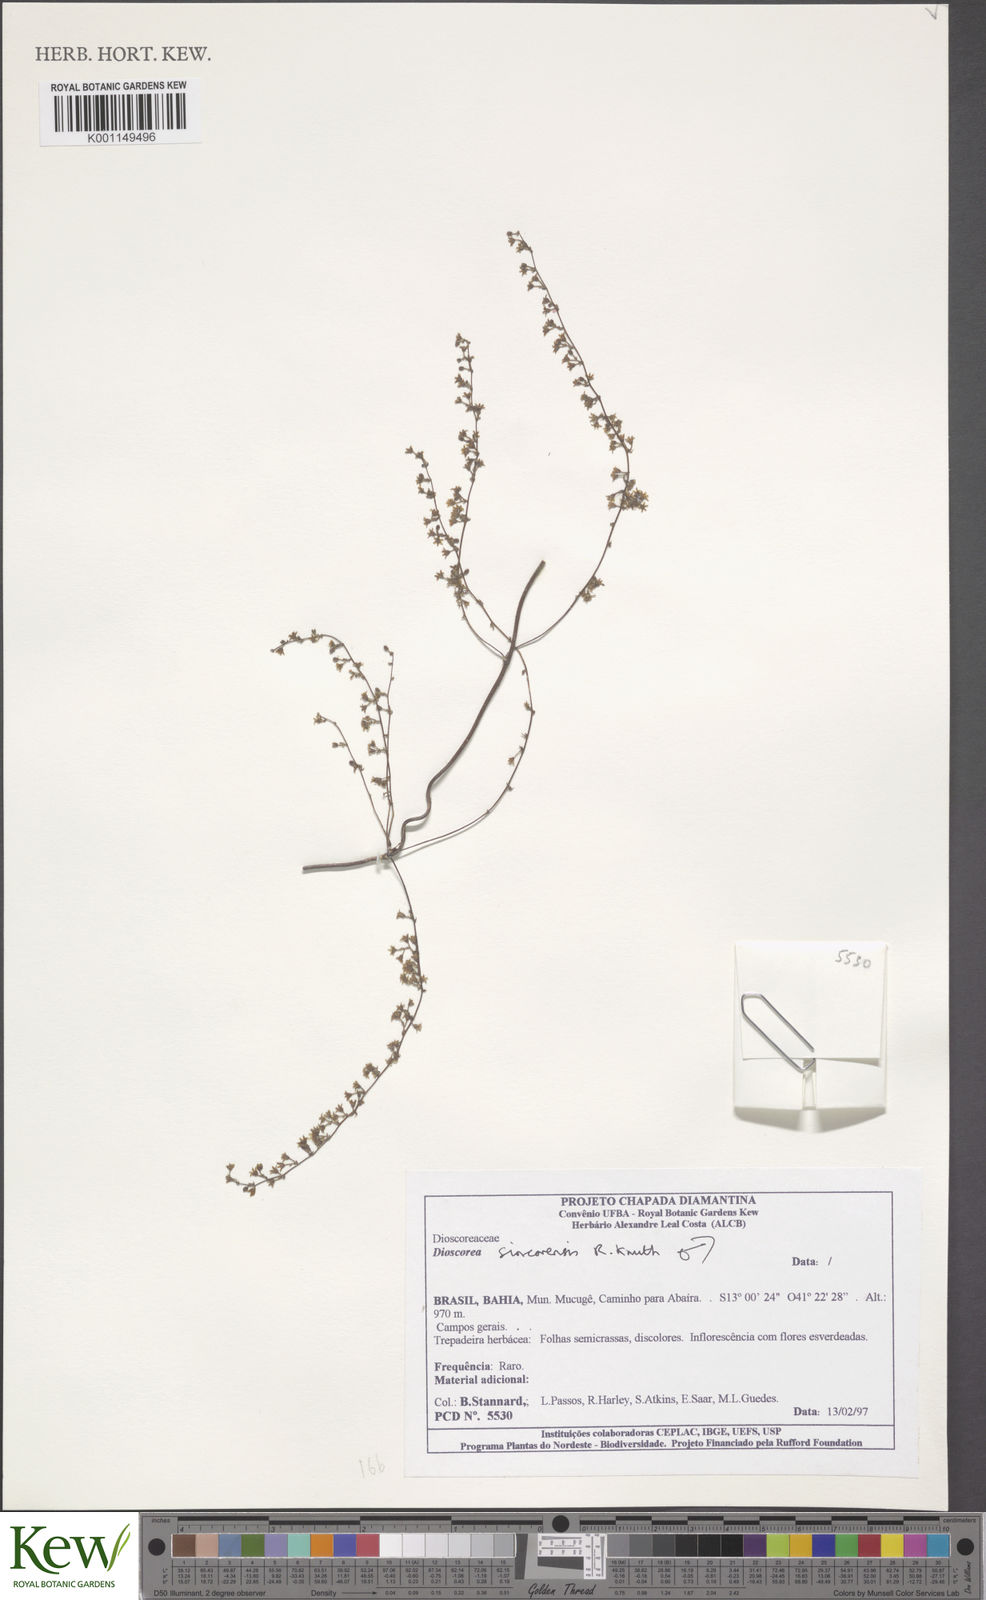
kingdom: Plantae
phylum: Tracheophyta
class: Liliopsida
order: Dioscoreales
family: Dioscoreaceae
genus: Dioscorea
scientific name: Dioscorea sincorensis
